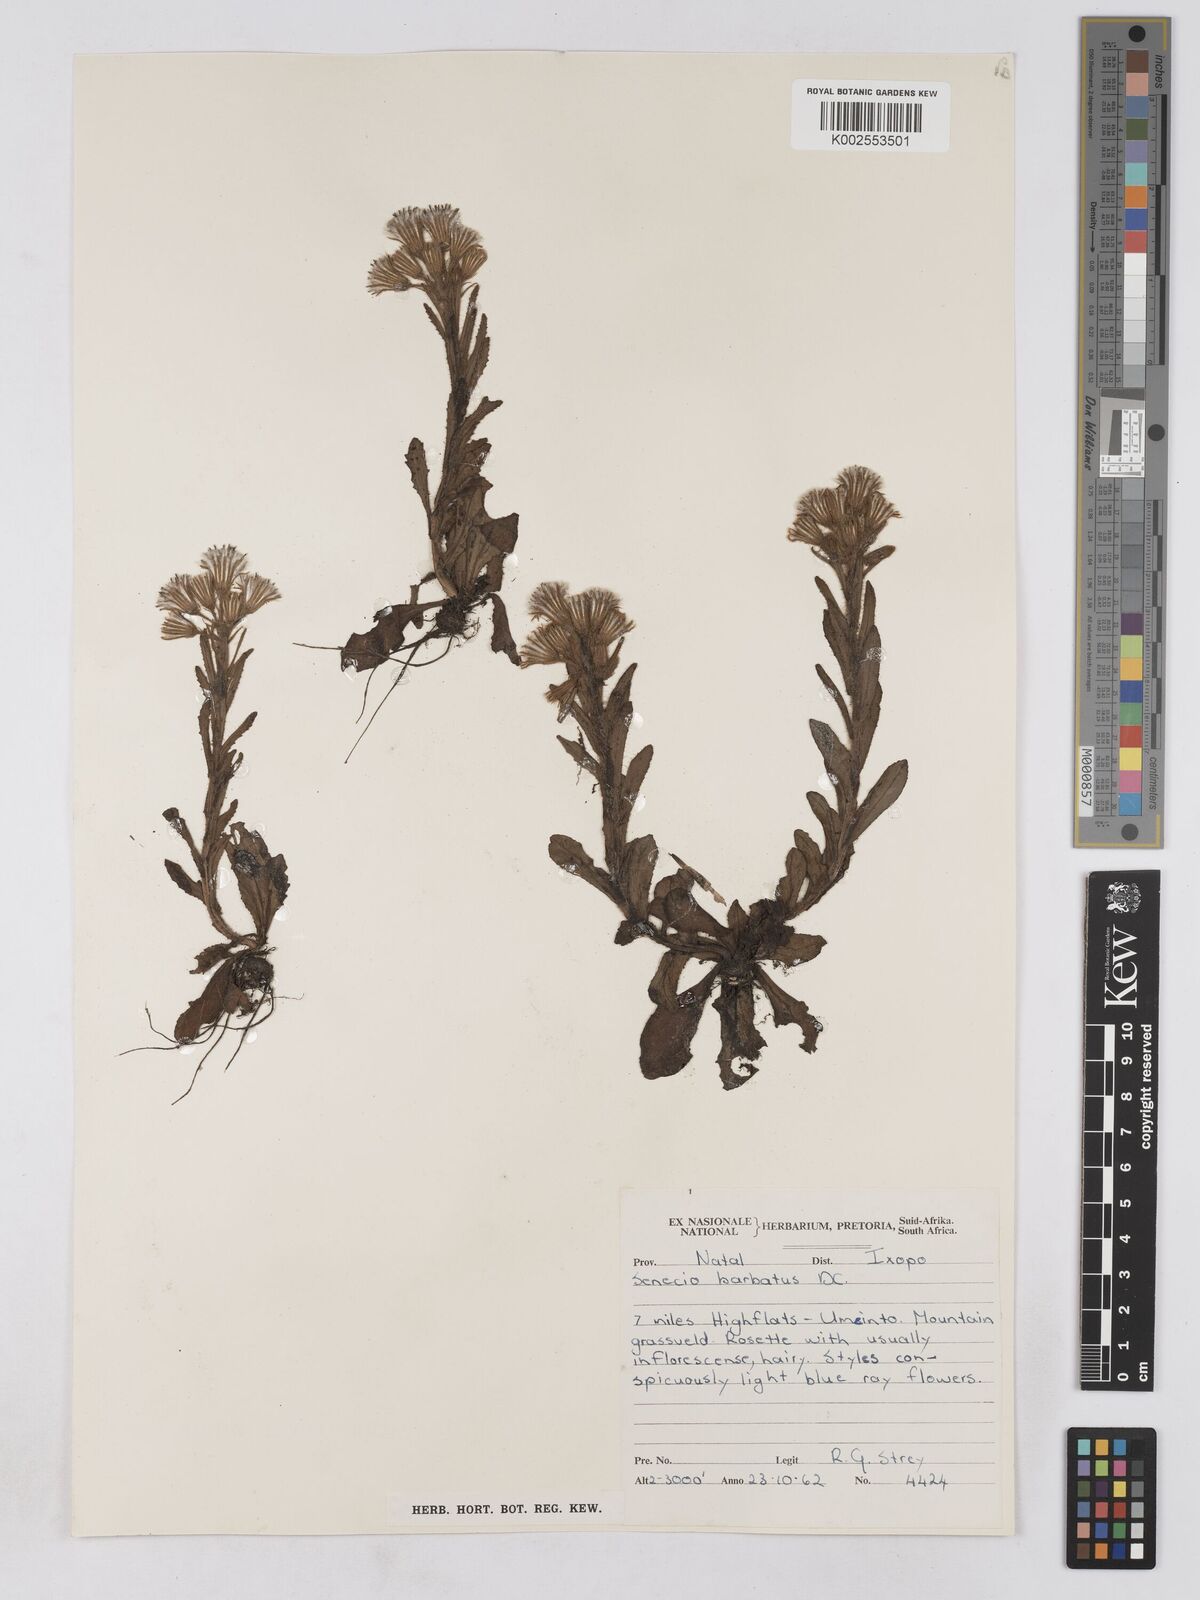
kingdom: Plantae
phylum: Tracheophyta
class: Magnoliopsida
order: Asterales
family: Asteraceae
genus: Senecio
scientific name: Senecio barbatus
